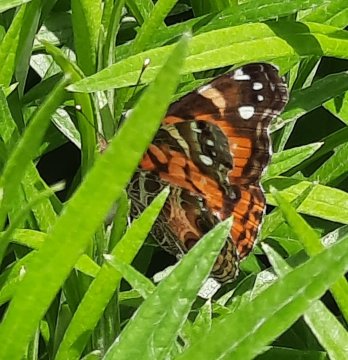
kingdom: Animalia
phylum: Arthropoda
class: Insecta
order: Lepidoptera
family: Nymphalidae
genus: Vanessa
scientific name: Vanessa virginiensis
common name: American Lady
